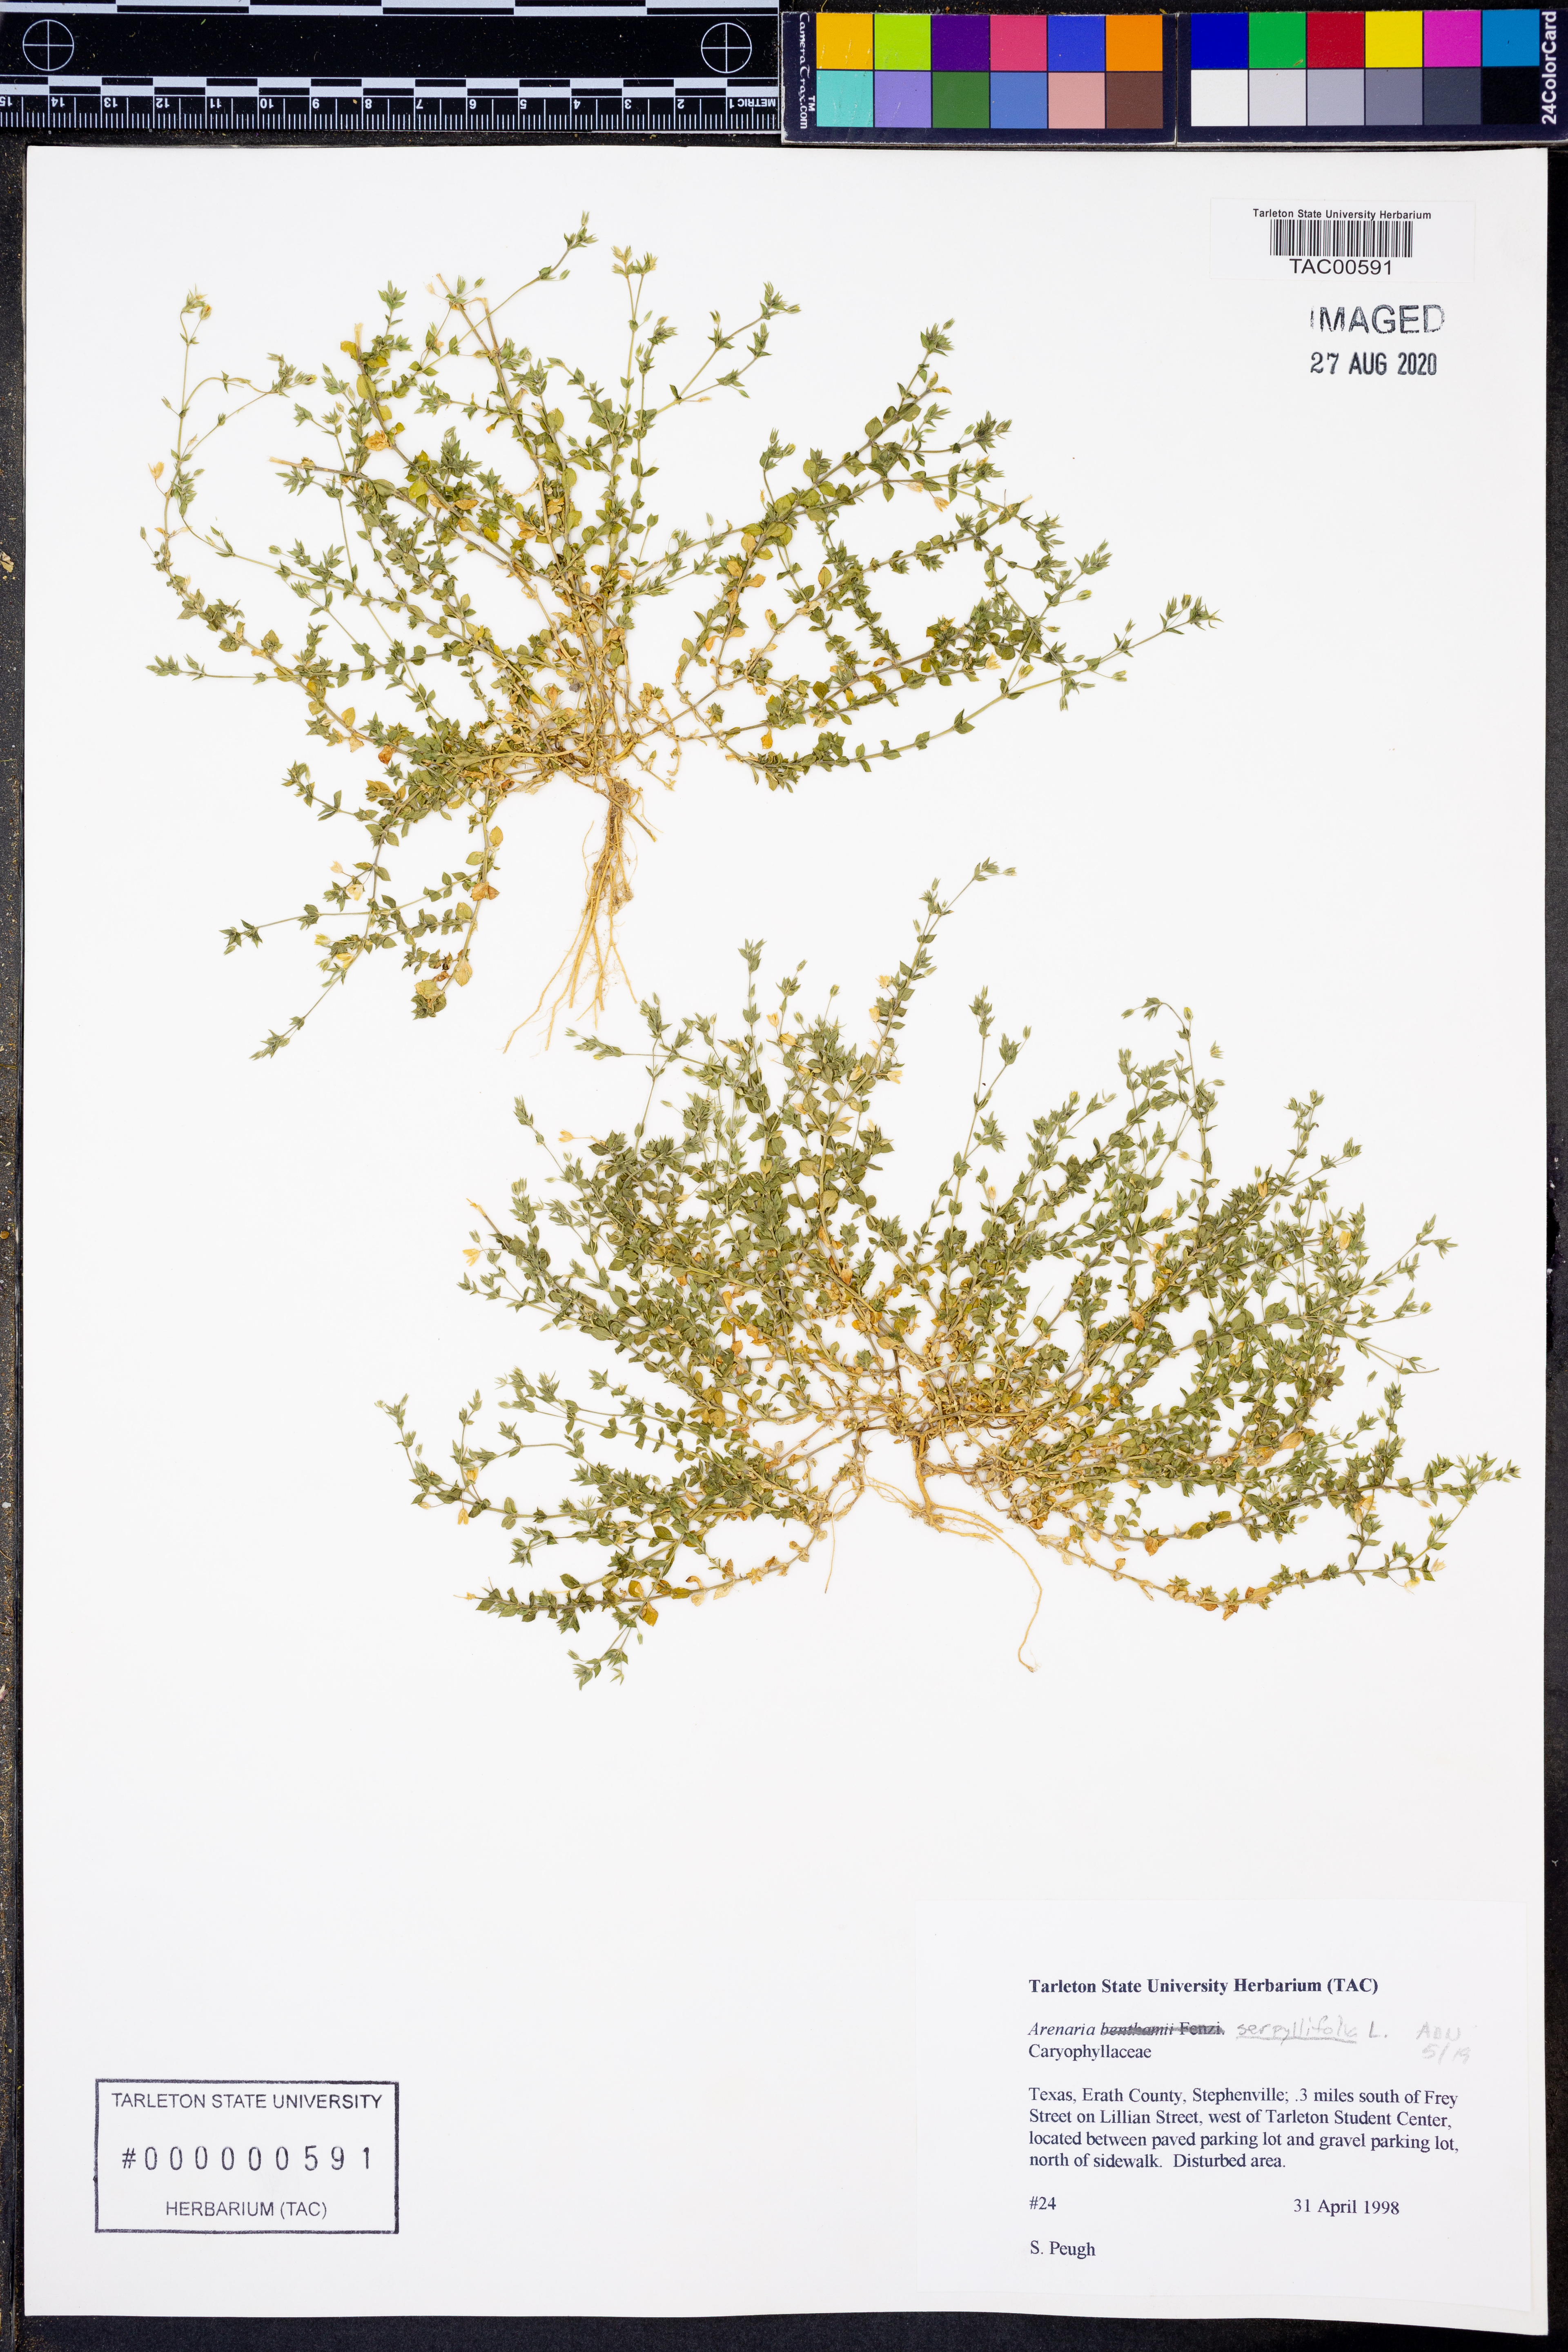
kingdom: Plantae
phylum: Tracheophyta
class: Magnoliopsida
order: Caryophyllales
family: Caryophyllaceae
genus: Arenaria
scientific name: Arenaria serpyllifolia
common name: Thyme-leaved sandwort
